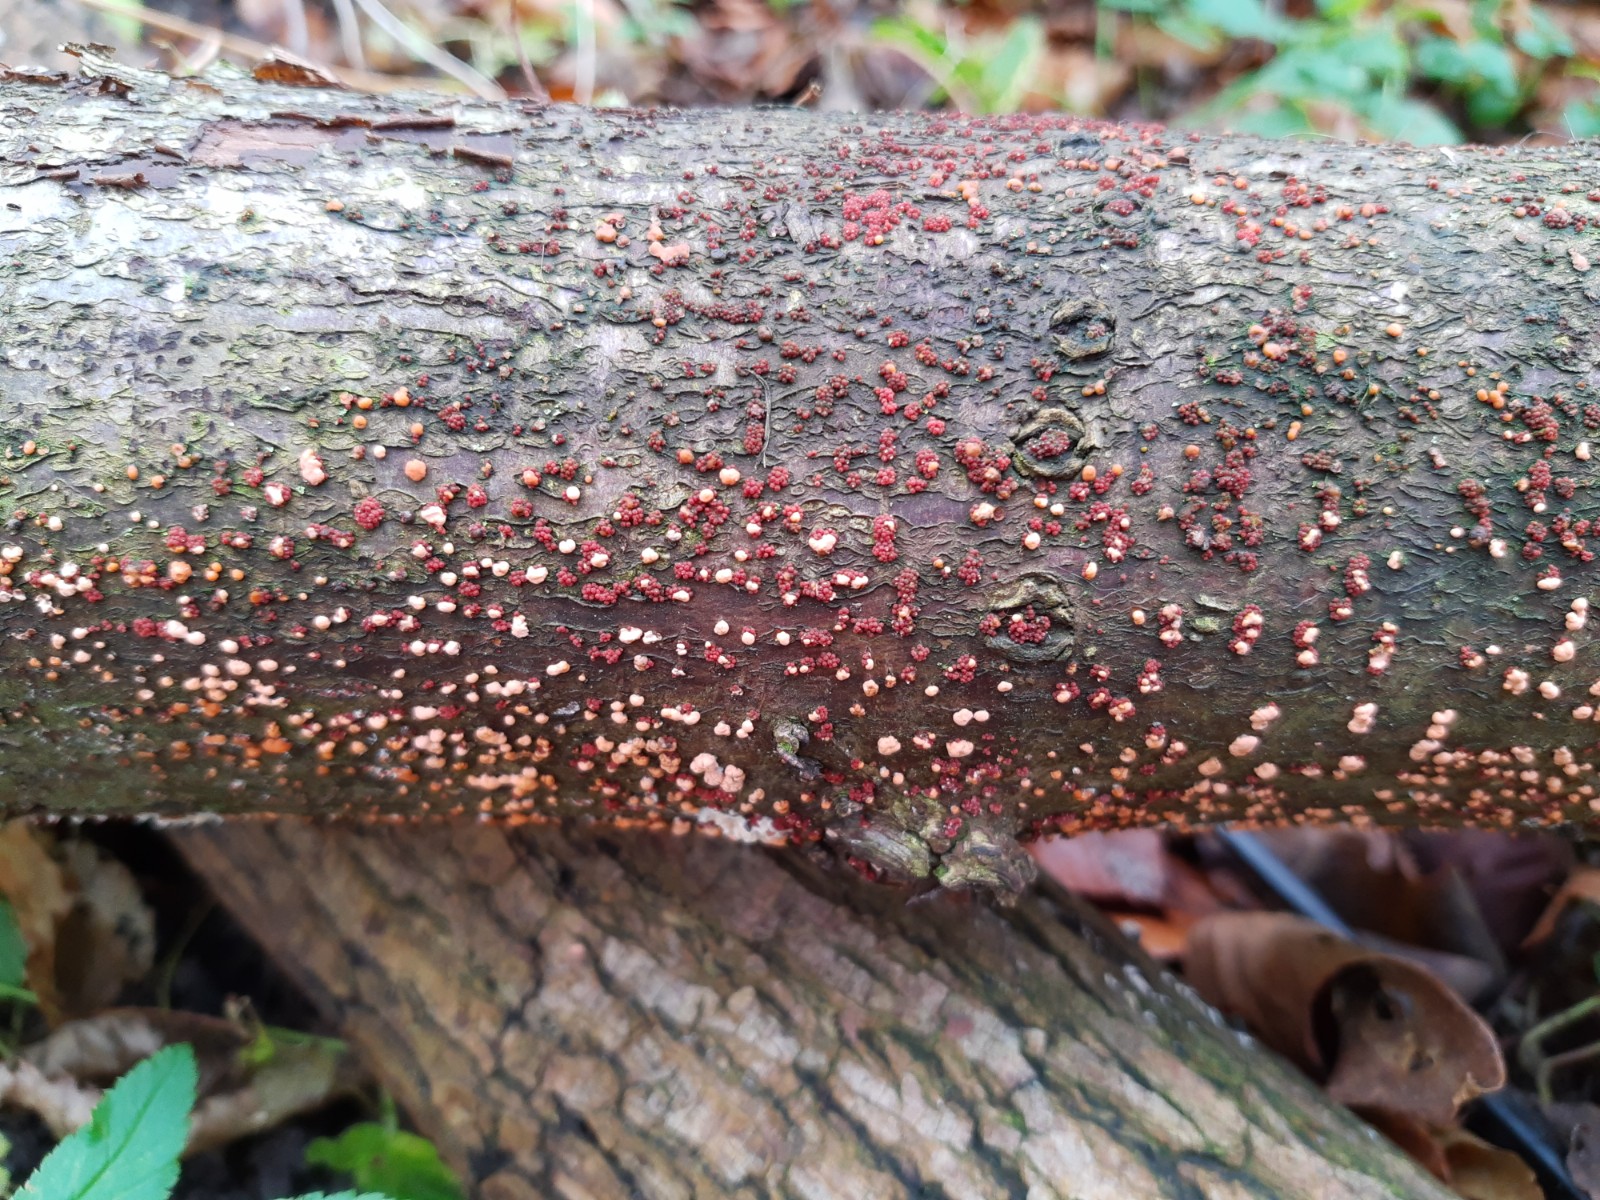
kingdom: Fungi
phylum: Ascomycota
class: Sordariomycetes
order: Hypocreales
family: Nectriaceae
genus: Nectria
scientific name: Nectria cinnabarina
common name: almindelig cinnobersvamp
